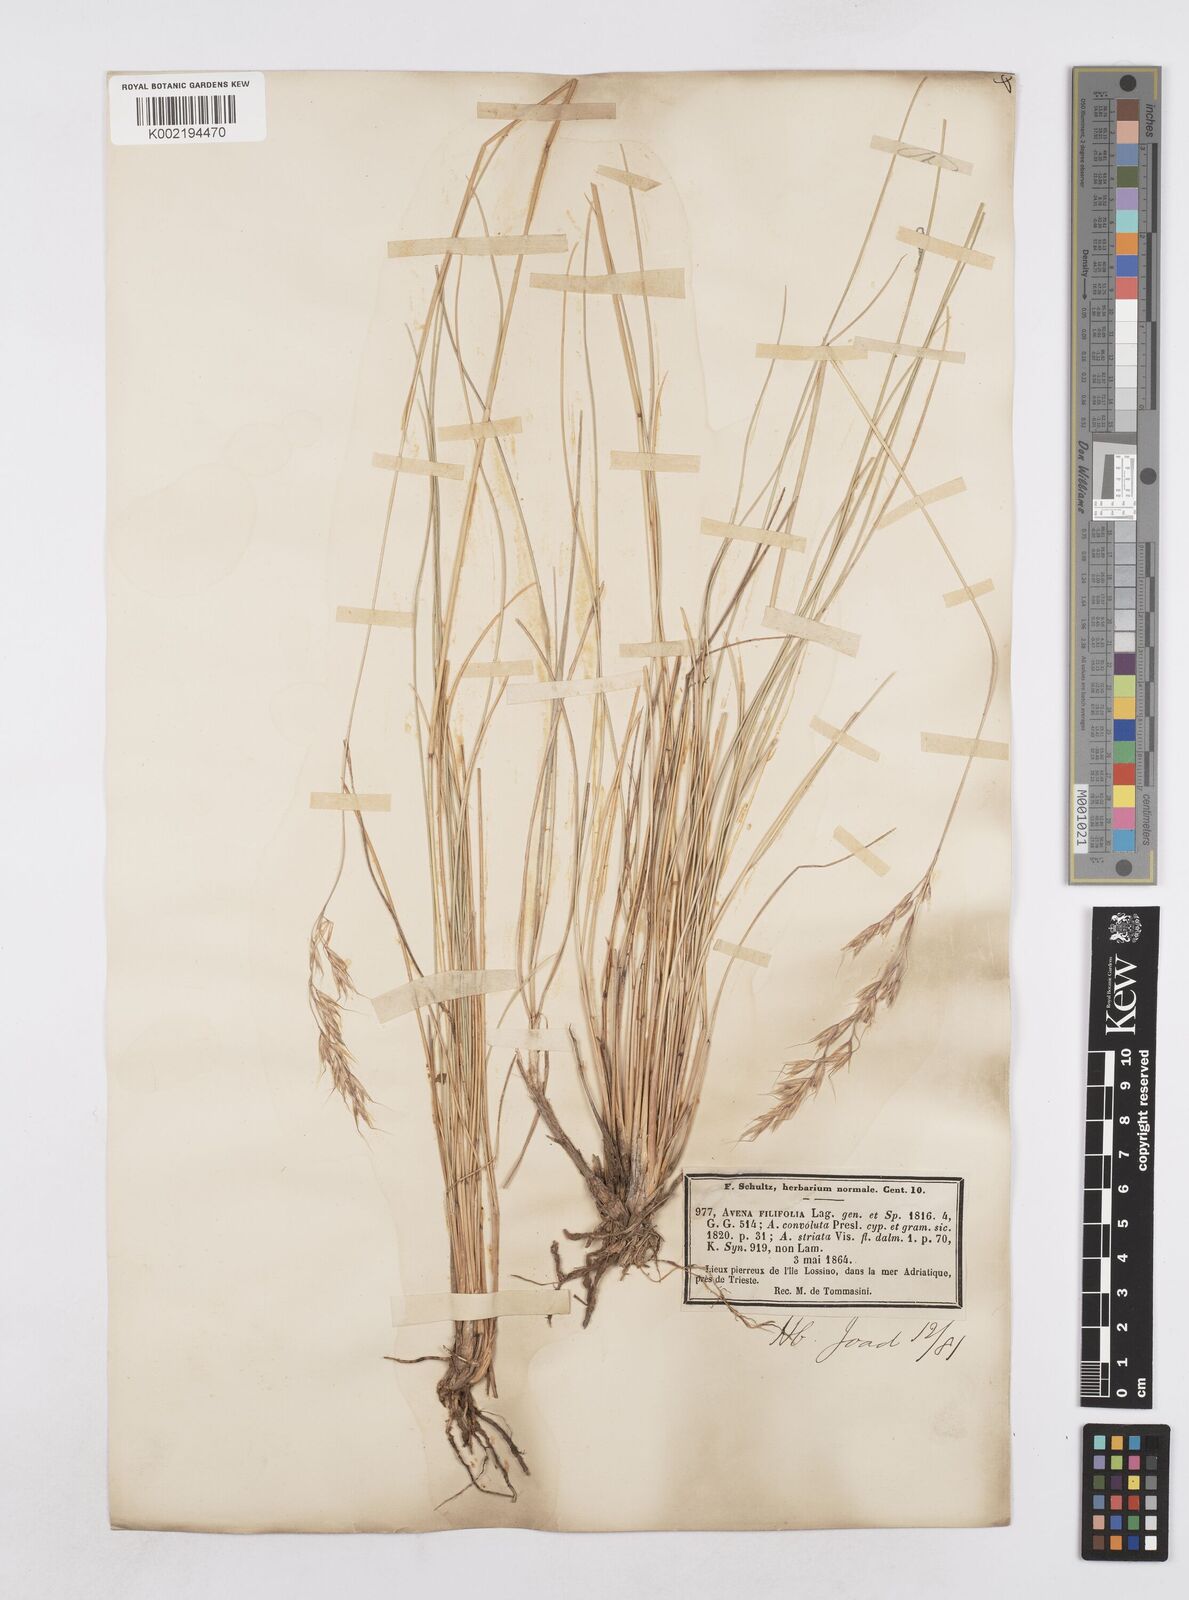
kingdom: Plantae
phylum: Tracheophyta
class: Liliopsida
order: Poales
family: Poaceae
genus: Helictotrichon
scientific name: Helictotrichon convolutum
